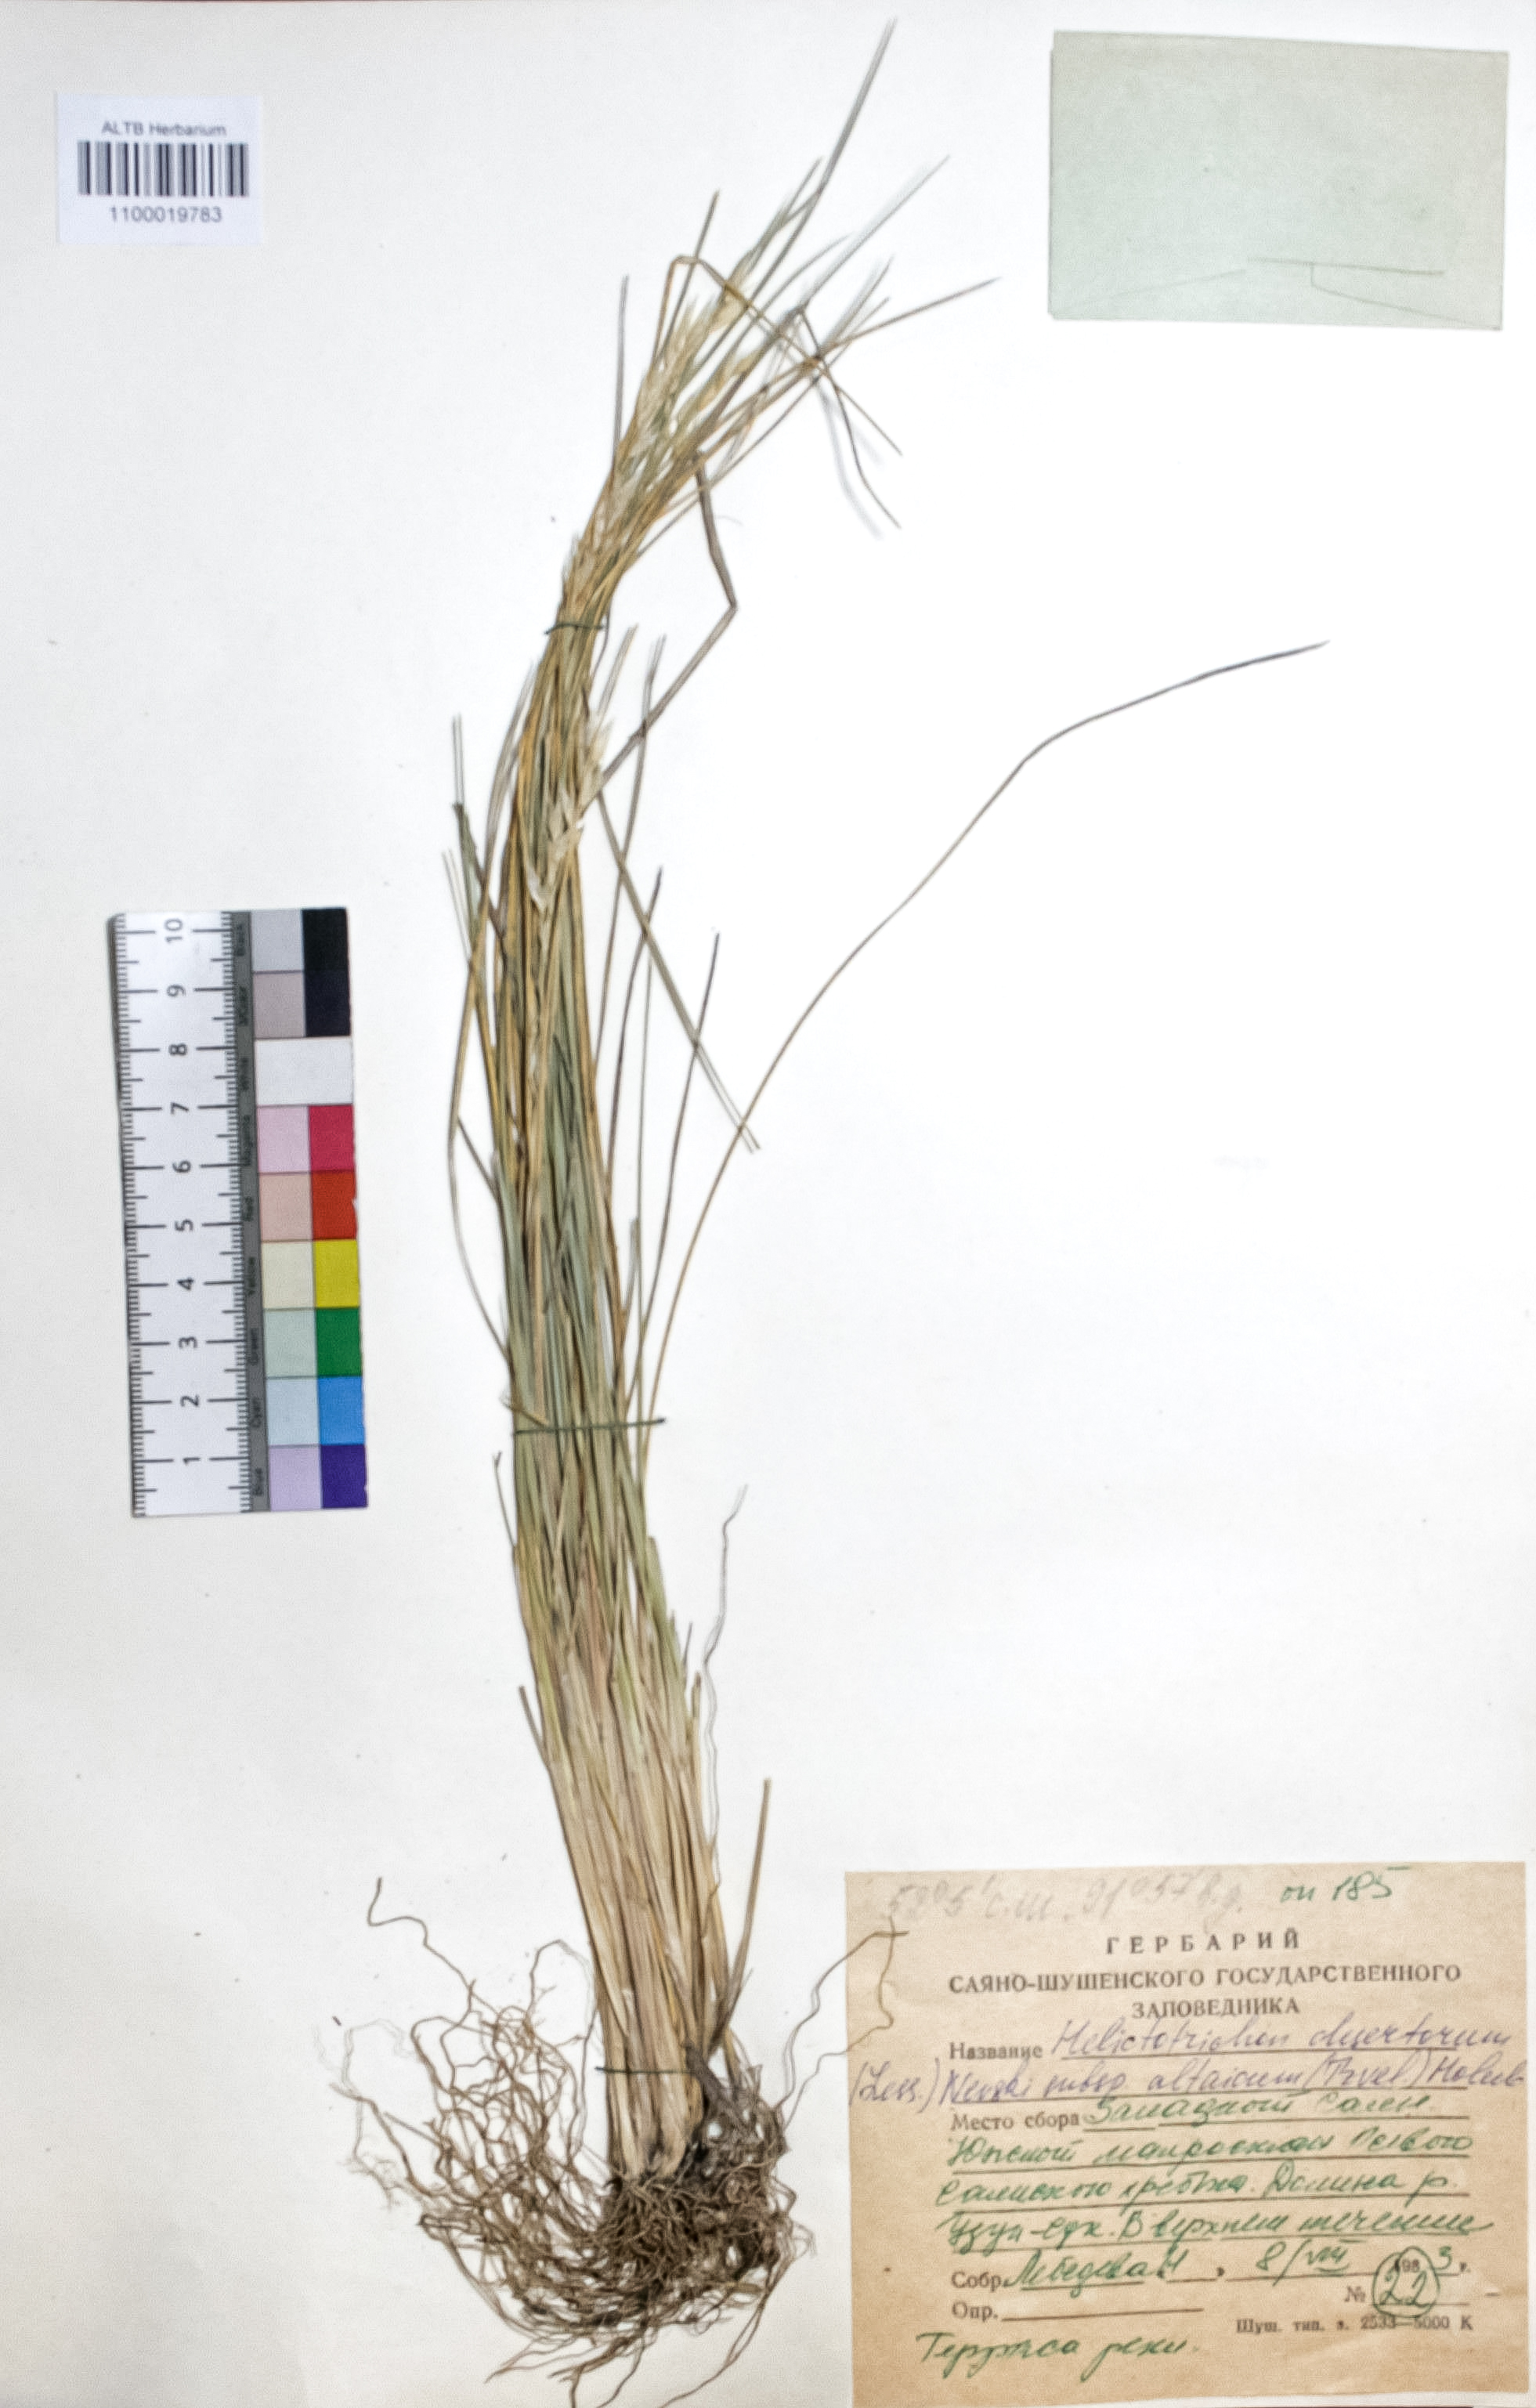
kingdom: Plantae
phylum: Tracheophyta
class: Liliopsida
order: Poales
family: Poaceae
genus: Helictotrichon
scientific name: Helictotrichon desertorum
